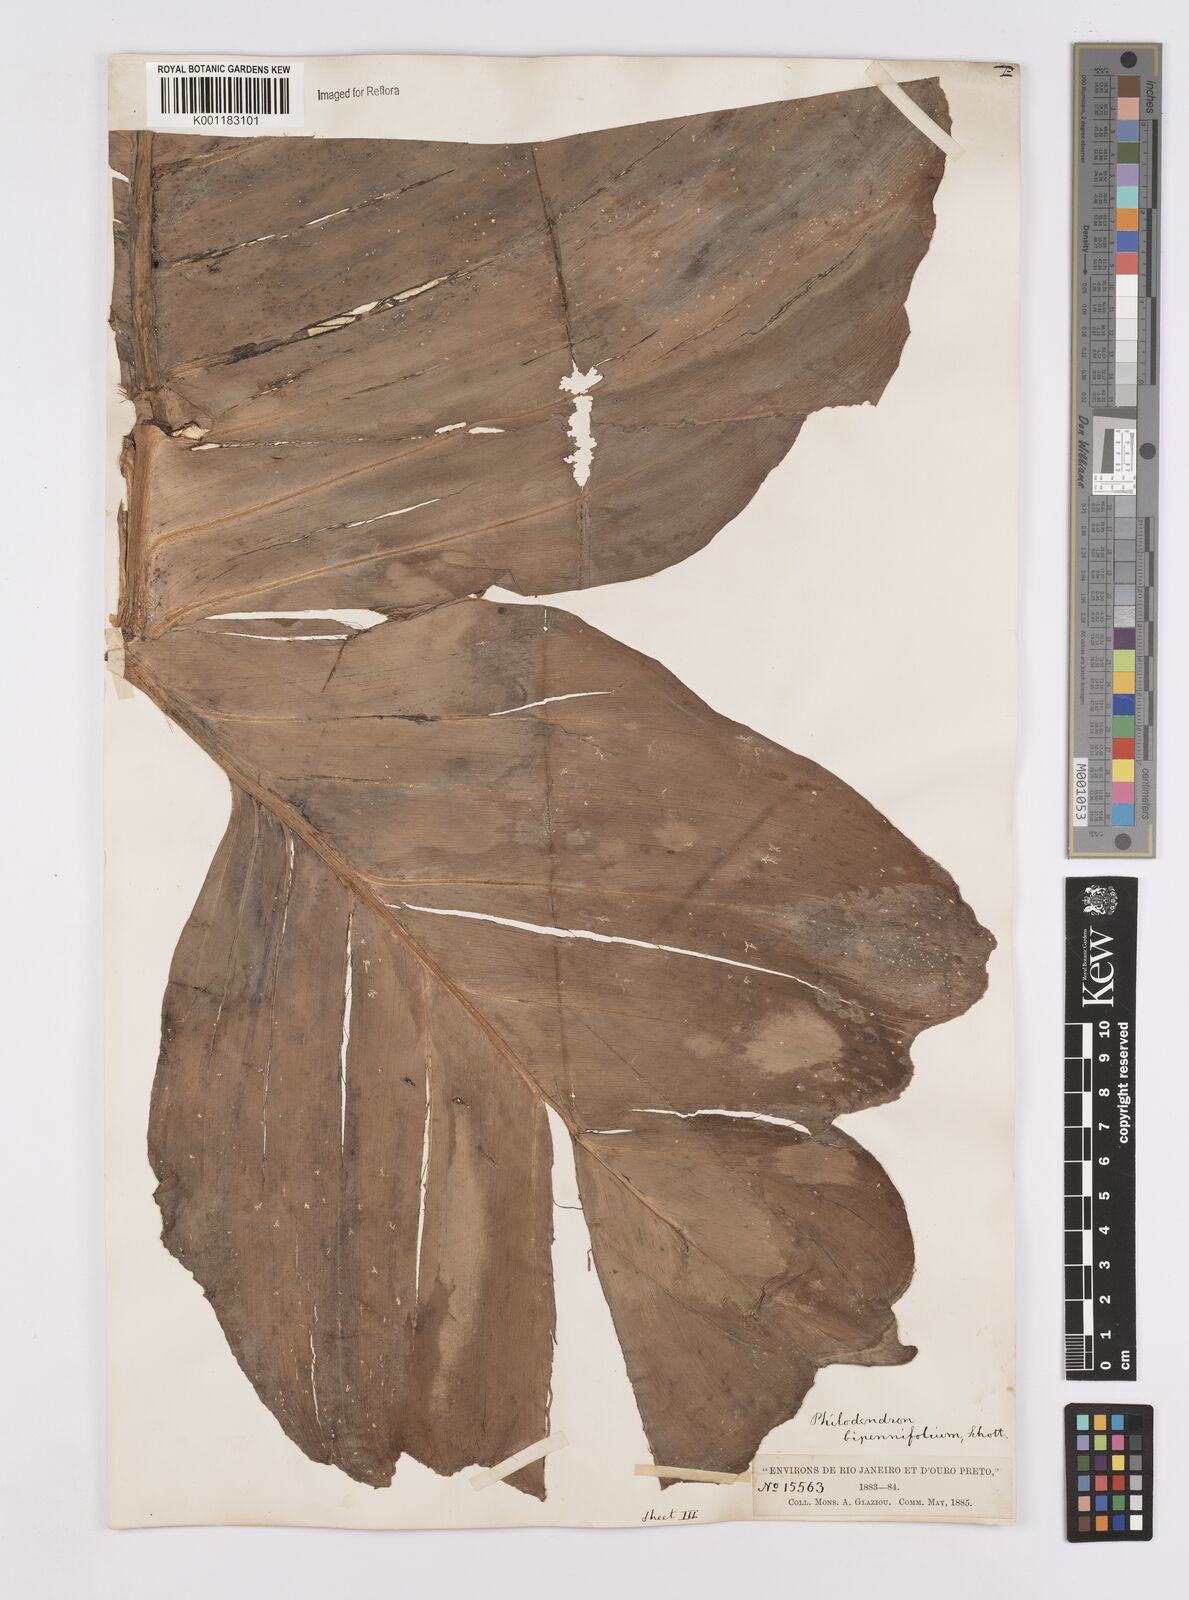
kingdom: Plantae
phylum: Tracheophyta
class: Liliopsida
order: Alismatales
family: Araceae
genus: Philodendron
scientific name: Philodendron bipennifolium
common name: Fiddle-leaf philodendron
